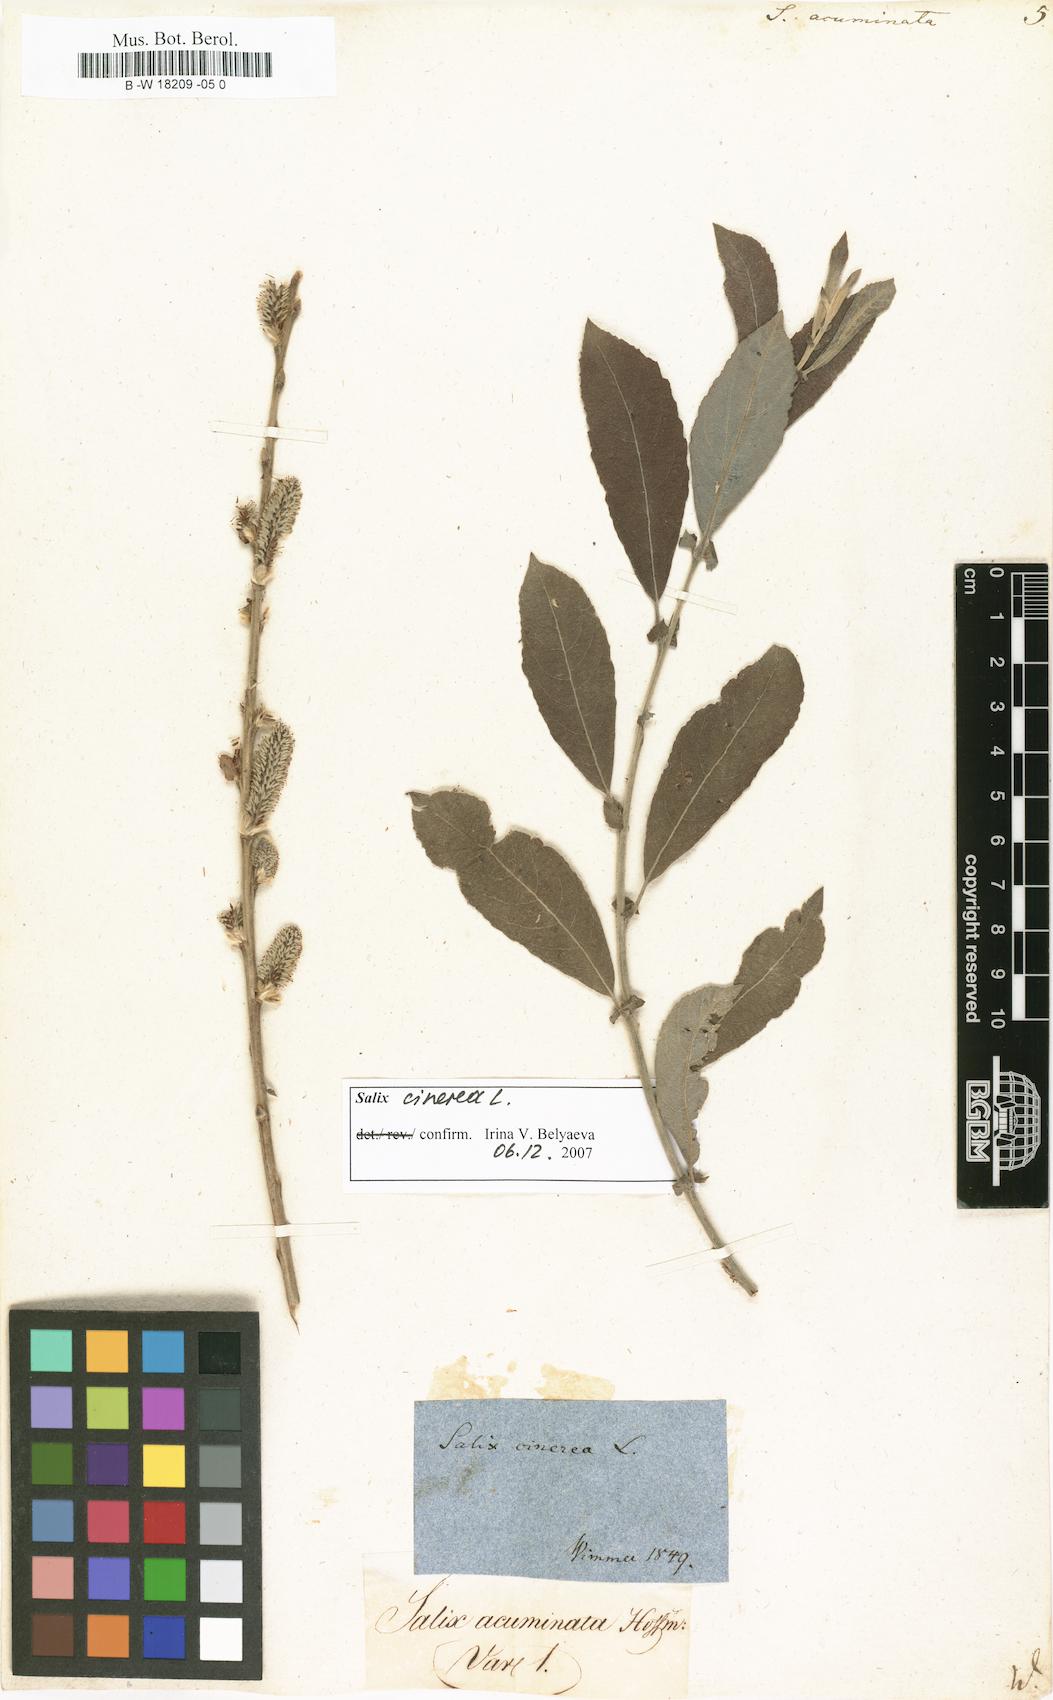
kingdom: Plantae
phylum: Tracheophyta
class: Magnoliopsida
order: Malpighiales
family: Salicaceae
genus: Salix
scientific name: Salix
